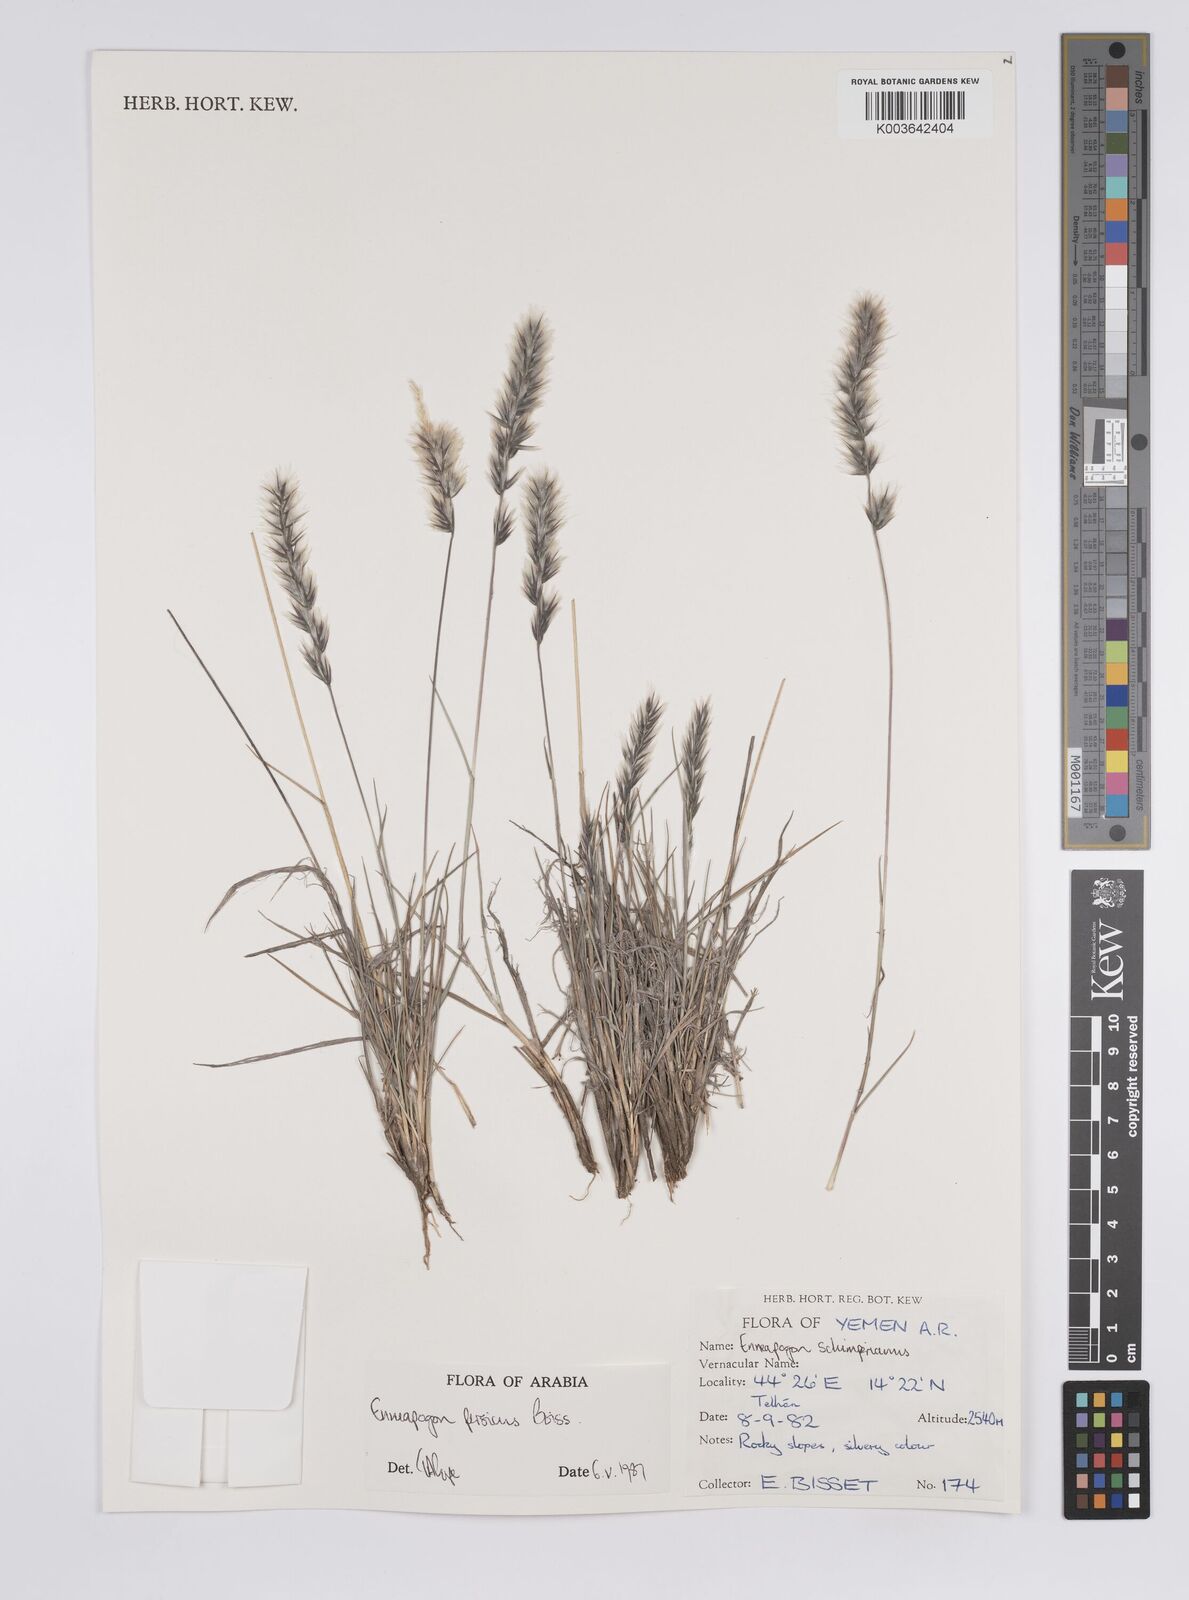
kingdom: Plantae
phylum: Tracheophyta
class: Liliopsida
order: Poales
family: Poaceae
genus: Enneapogon
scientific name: Enneapogon persicus
